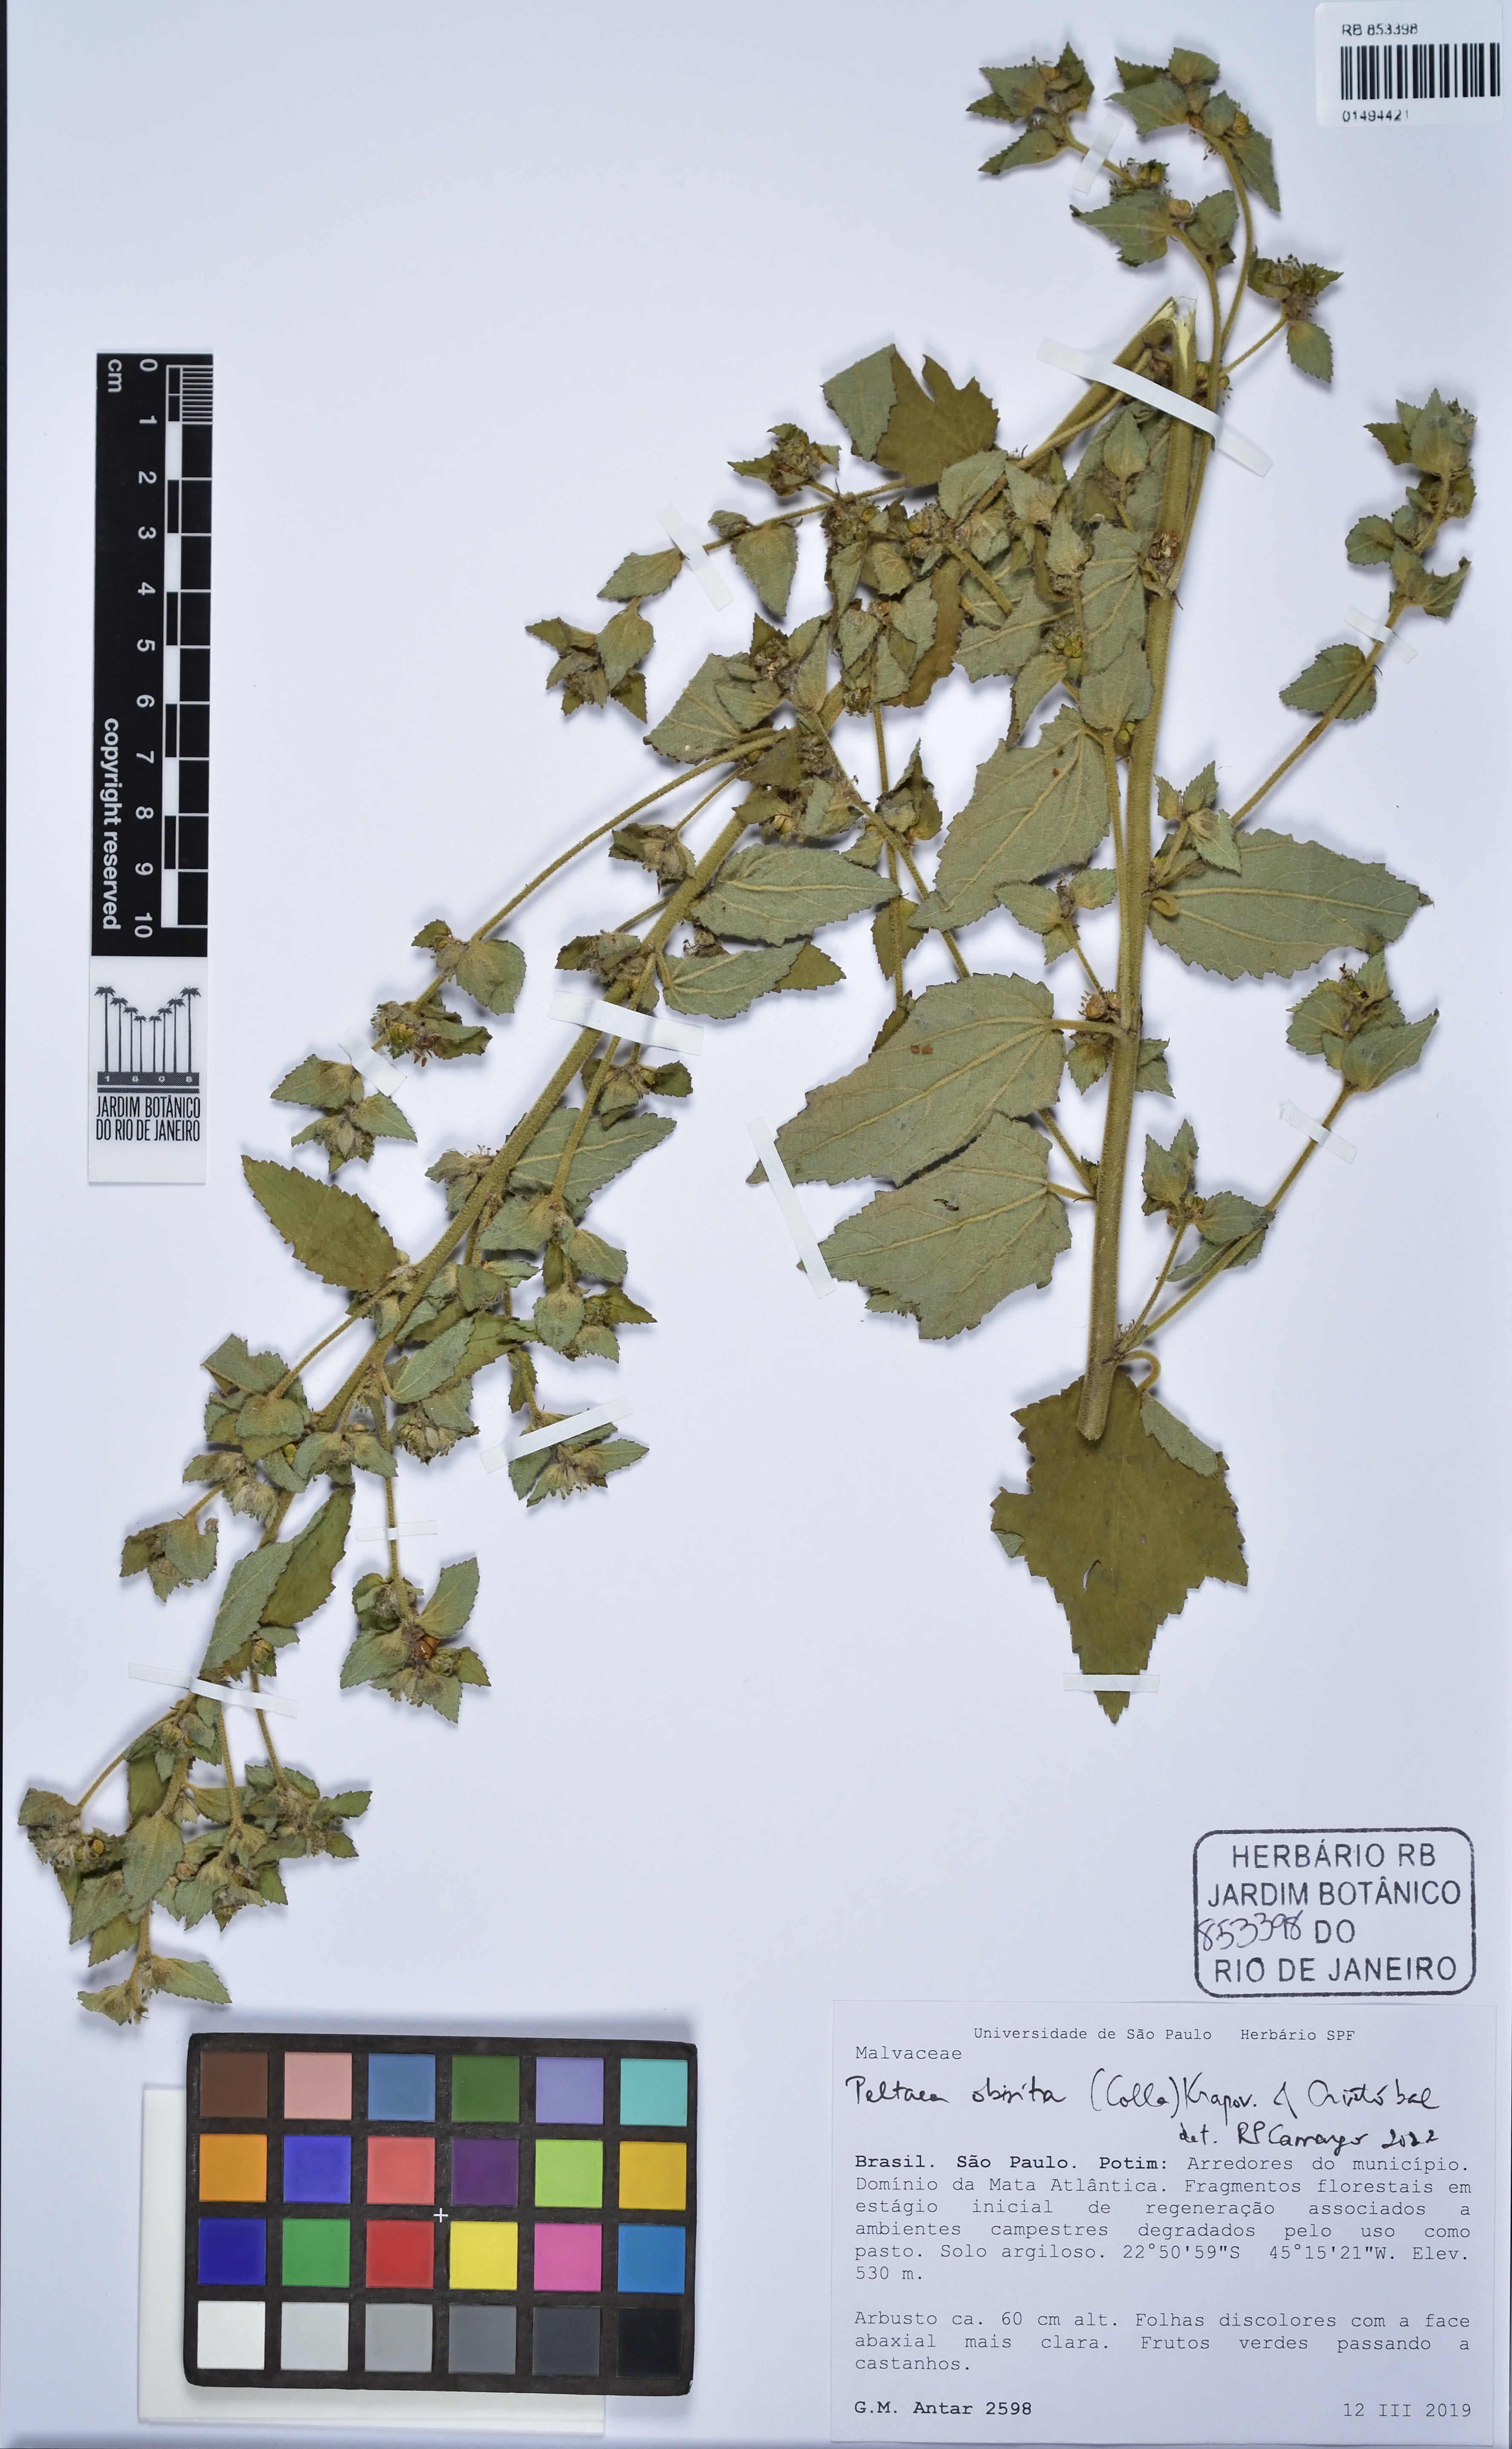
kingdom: Plantae
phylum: Tracheophyta
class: Magnoliopsida
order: Malvales
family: Malvaceae
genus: Peltaea
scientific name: Peltaea obsita
